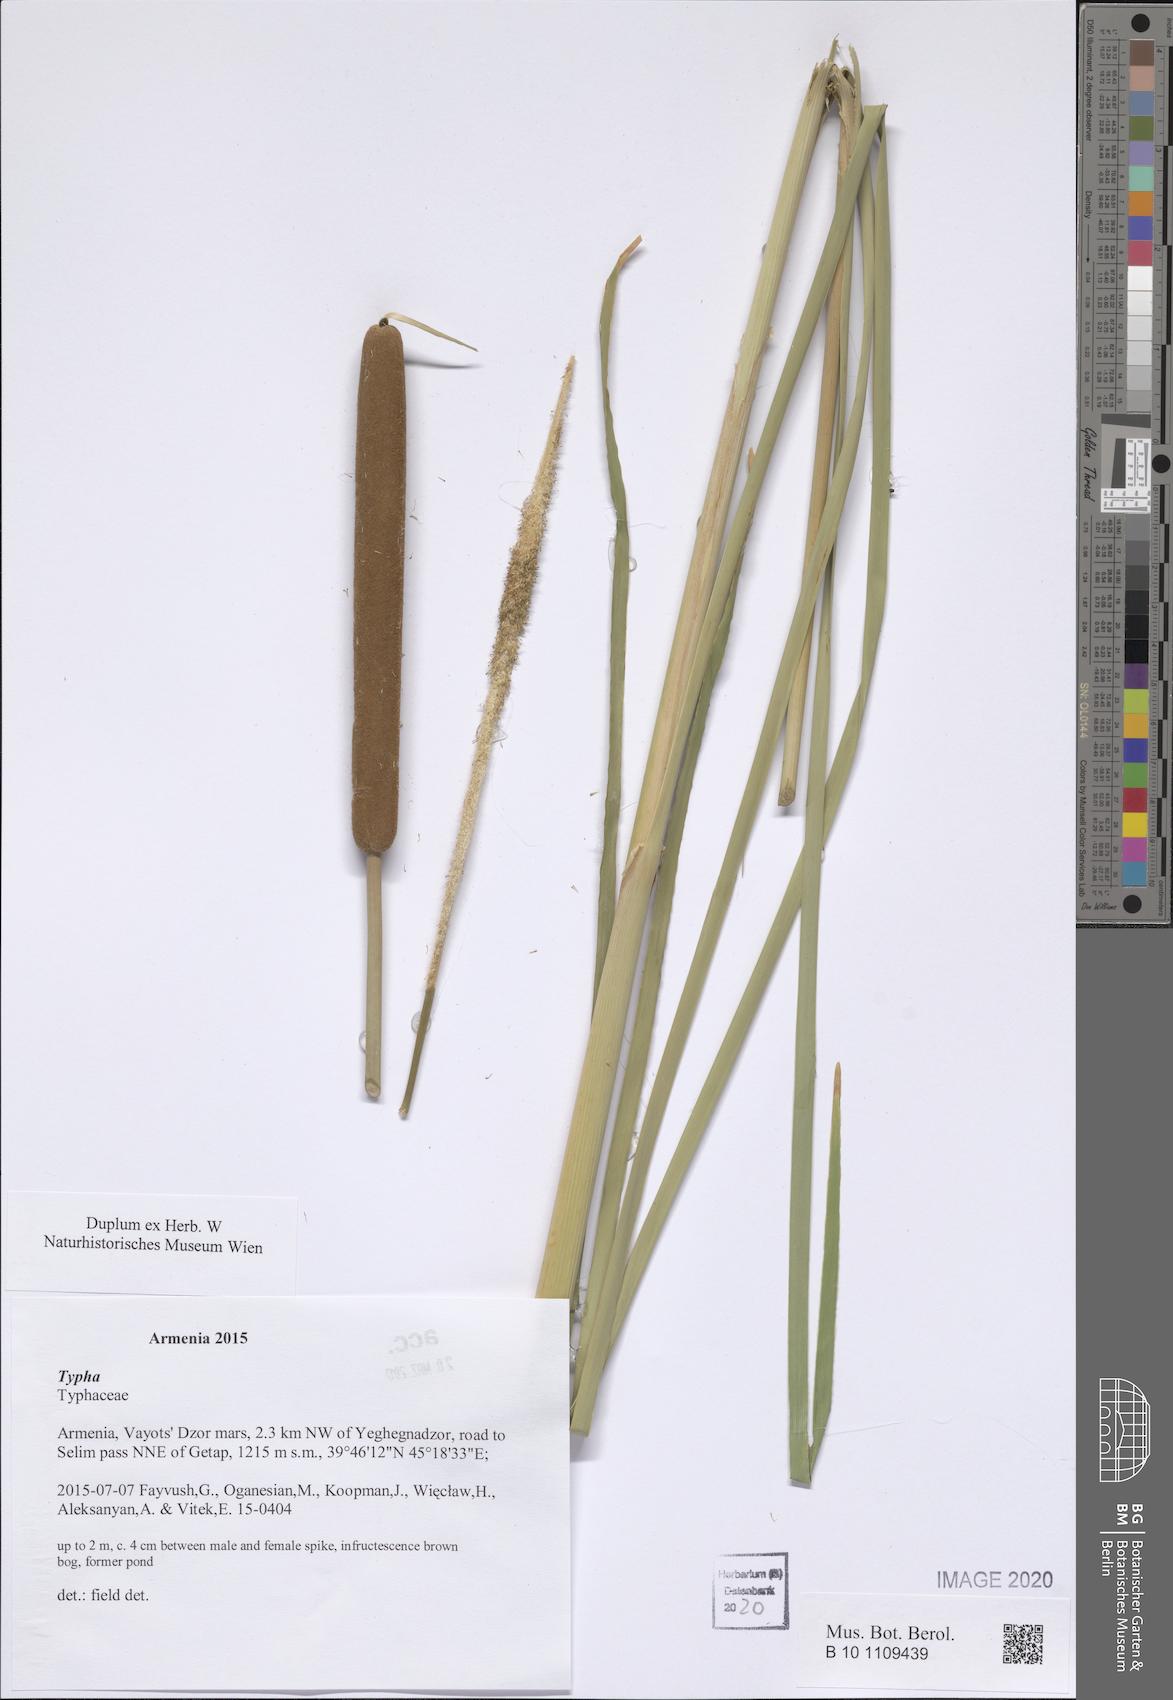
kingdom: Plantae
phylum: Tracheophyta
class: Liliopsida
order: Poales
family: Typhaceae
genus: Typha
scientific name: Typha
